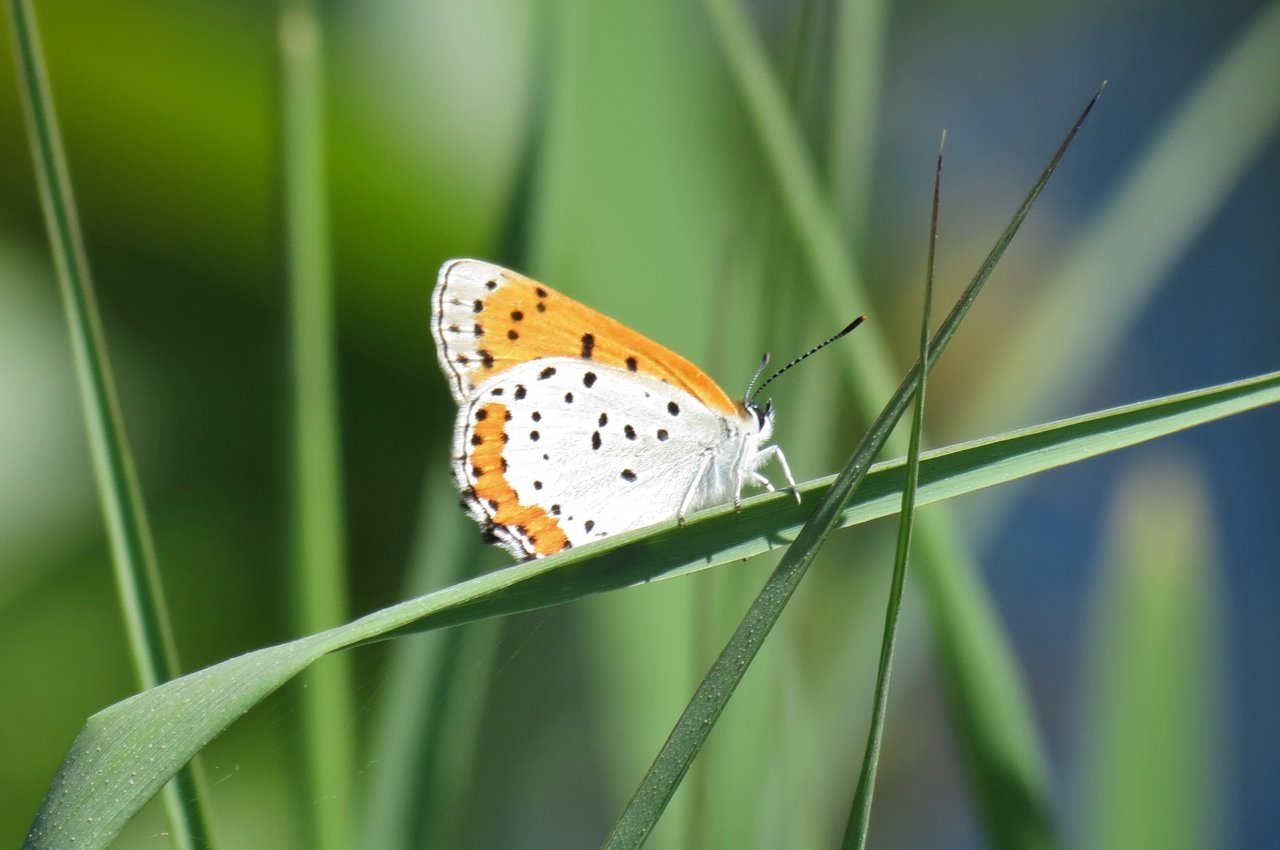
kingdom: Animalia
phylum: Arthropoda
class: Insecta
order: Lepidoptera
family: Sesiidae
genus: Sesia
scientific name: Sesia Lycaena hyllus
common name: Bronze Copper
